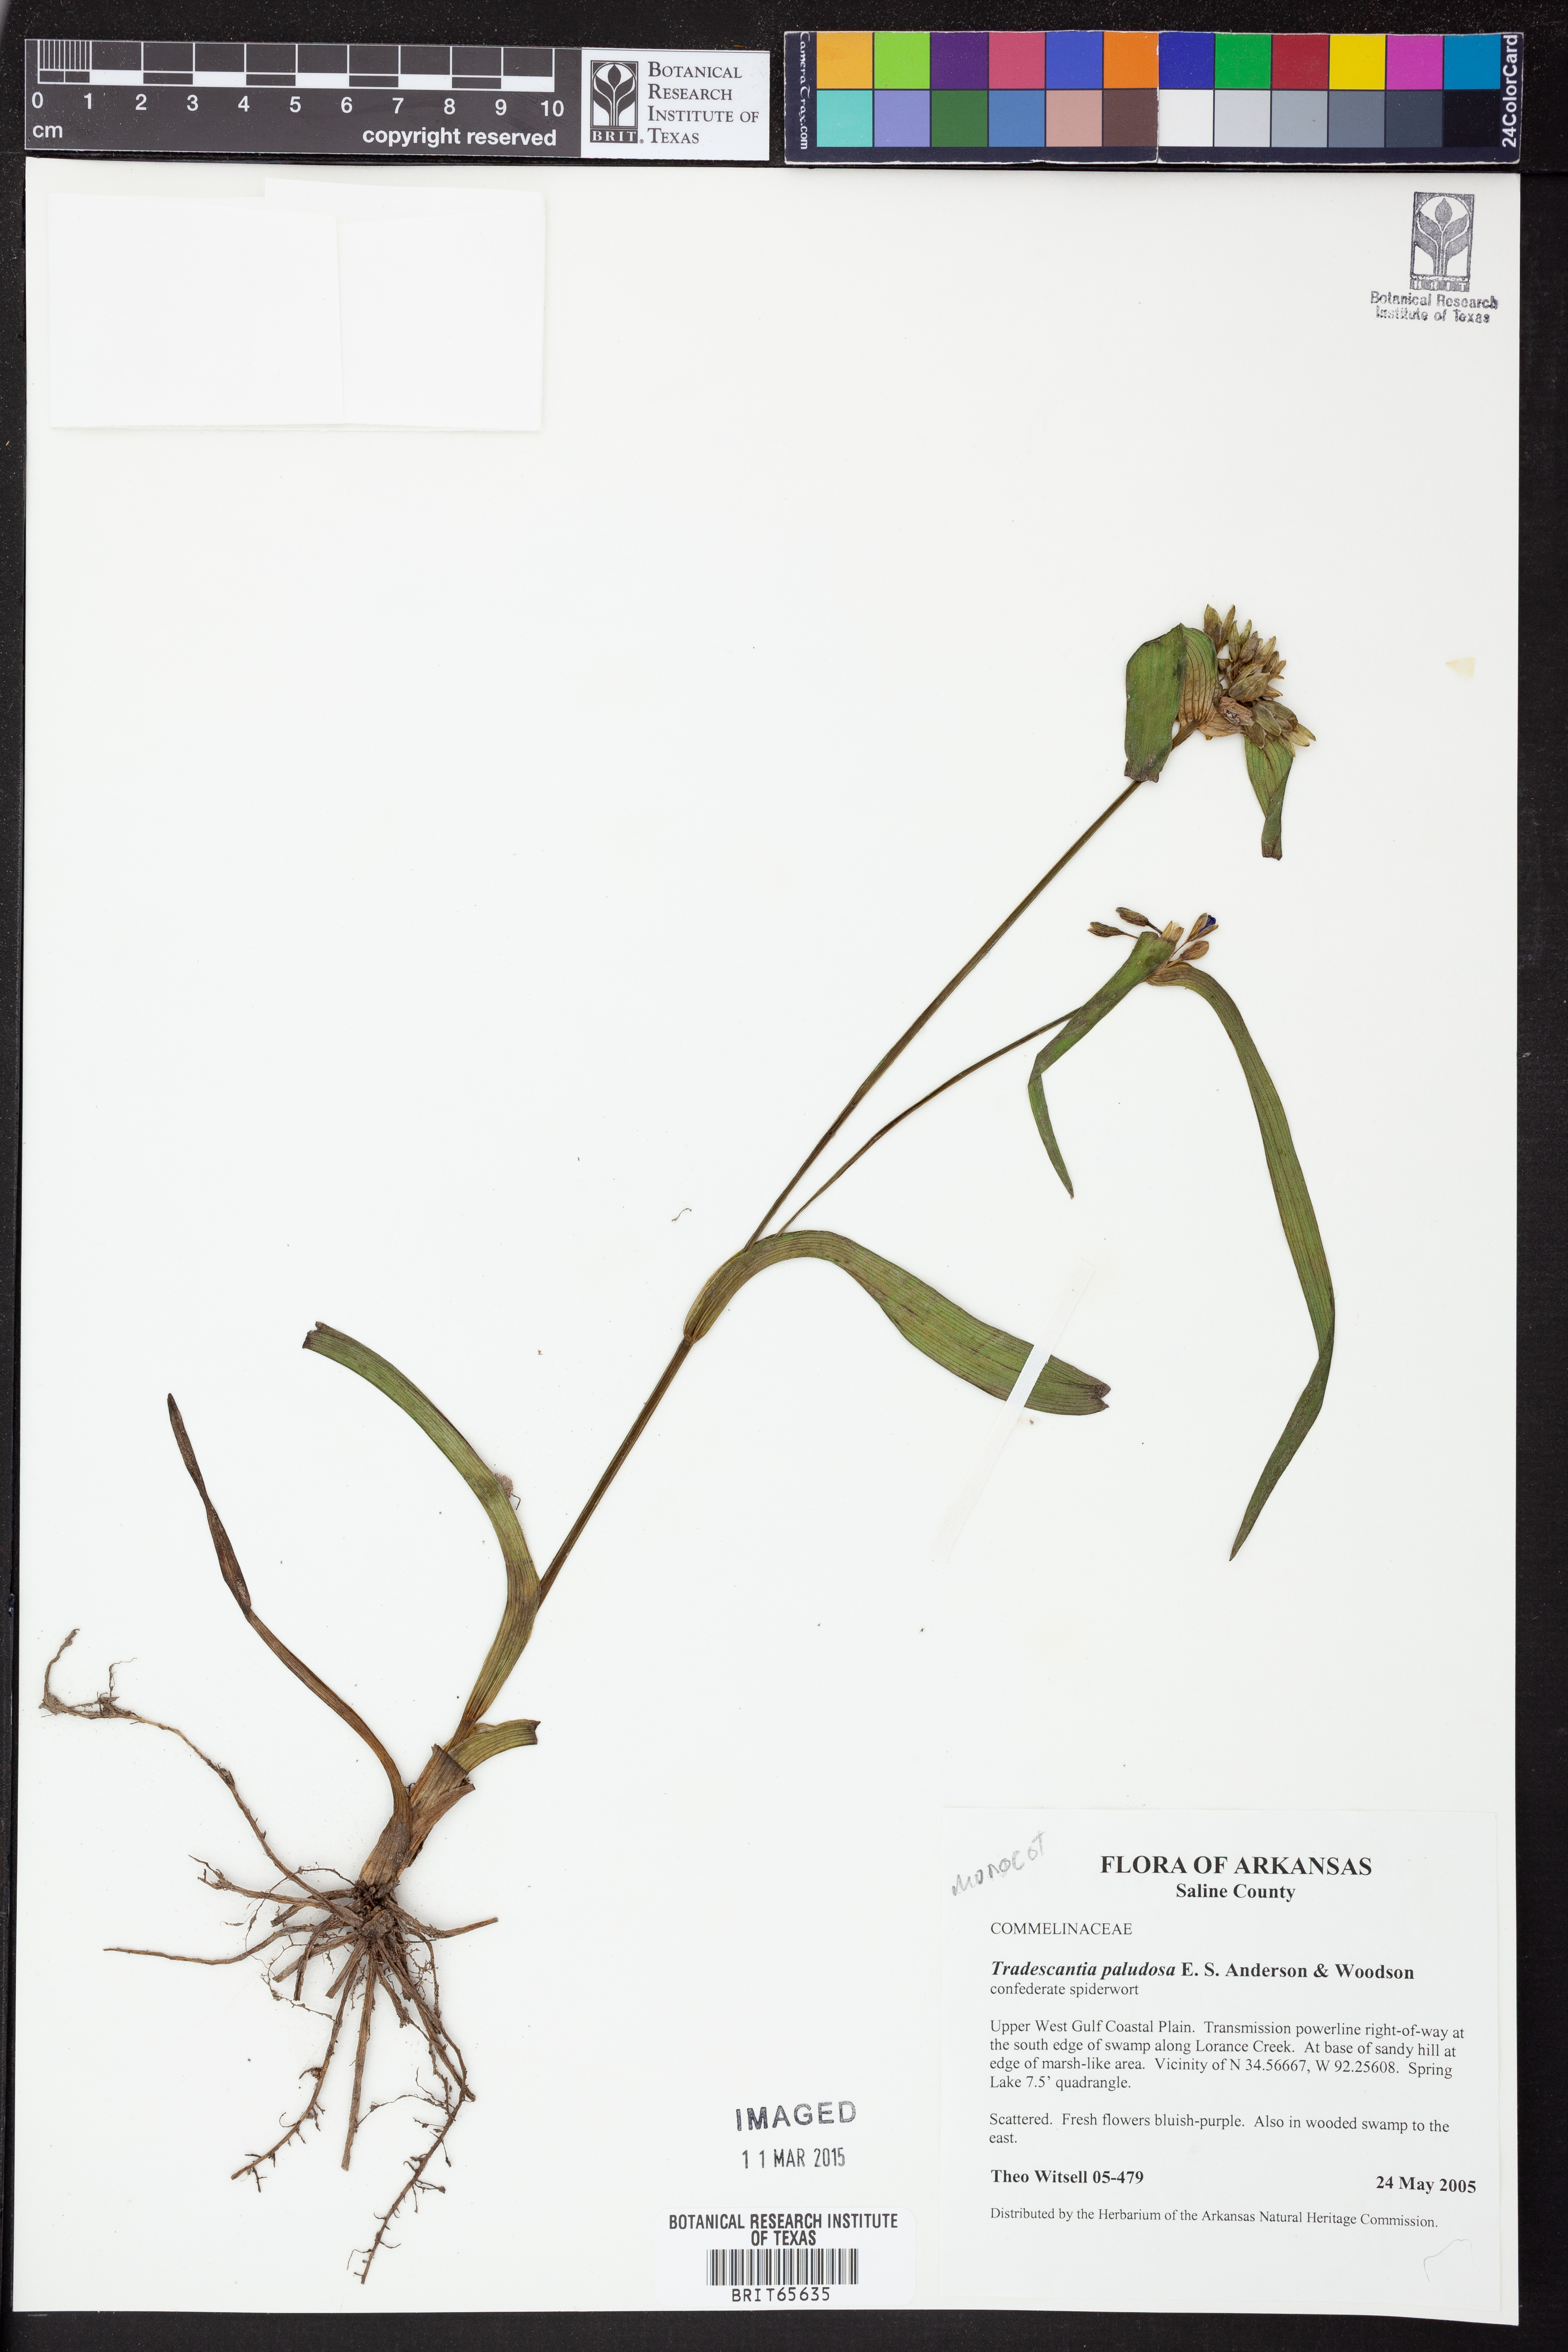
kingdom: Plantae
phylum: Tracheophyta
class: Liliopsida
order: Commelinales
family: Commelinaceae
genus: Tradescantia
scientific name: Tradescantia ohiensis
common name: Ohio spiderwort
